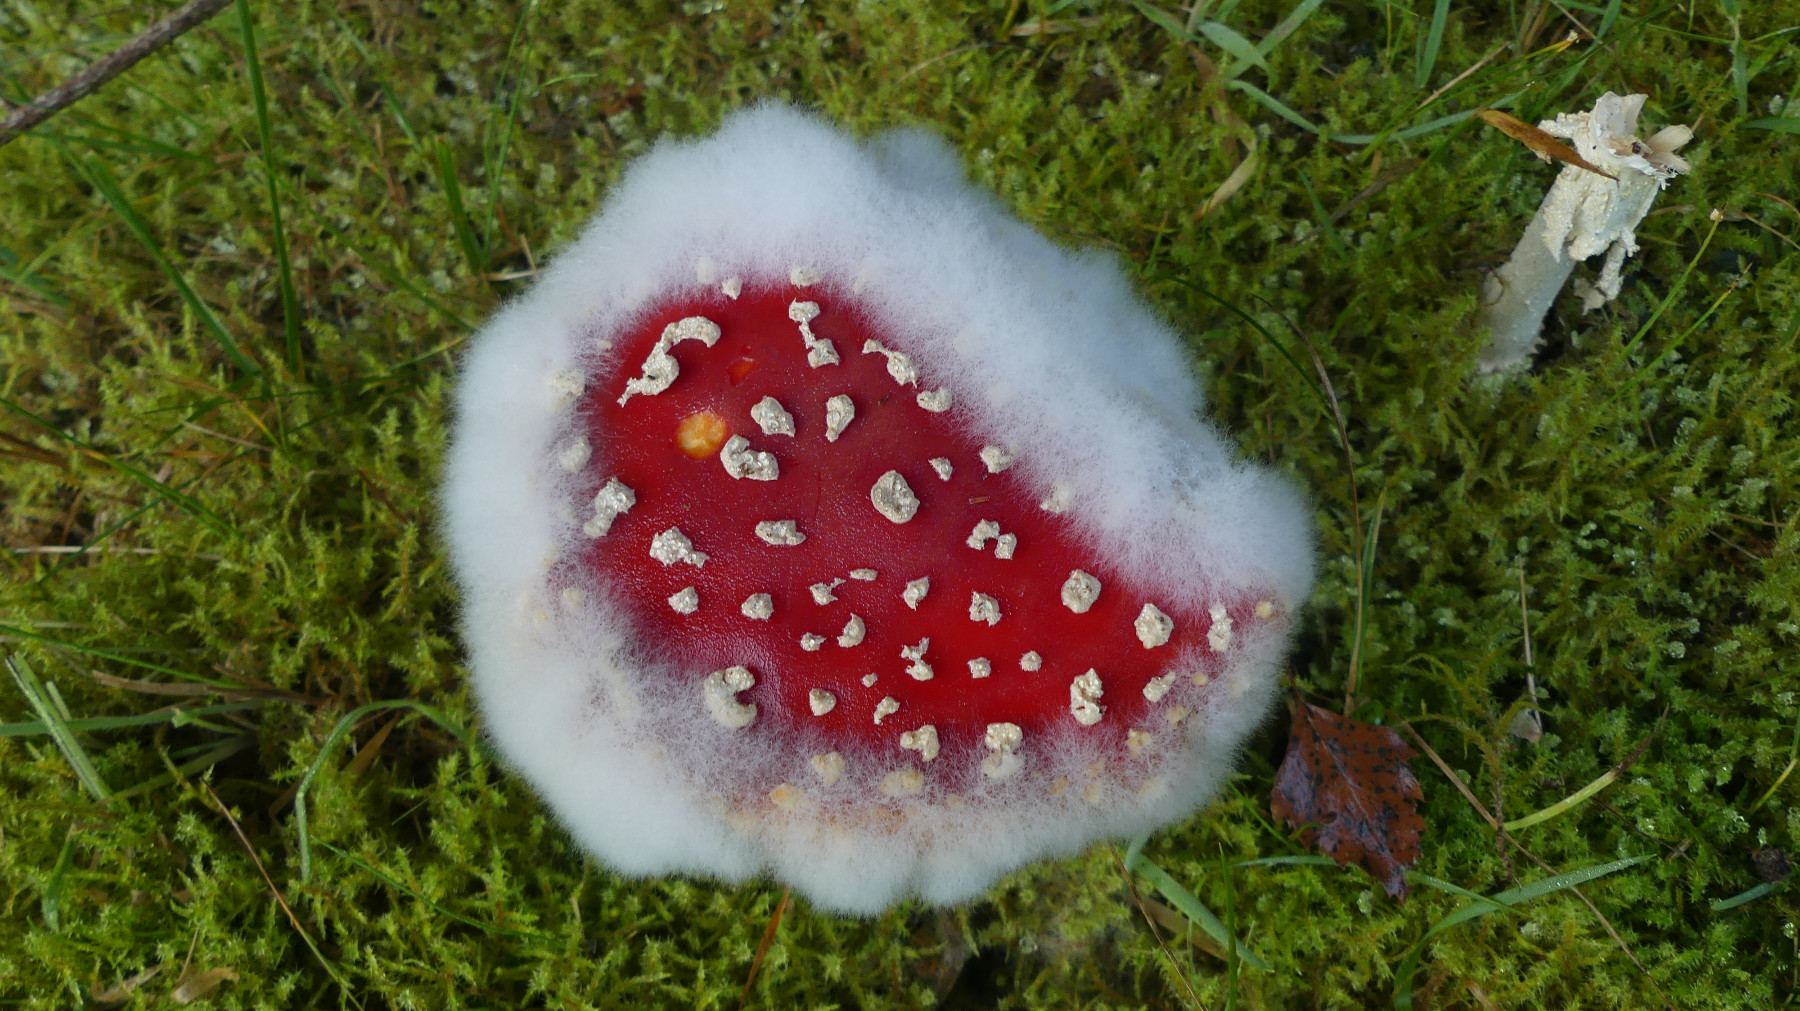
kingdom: Fungi
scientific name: Fungi
